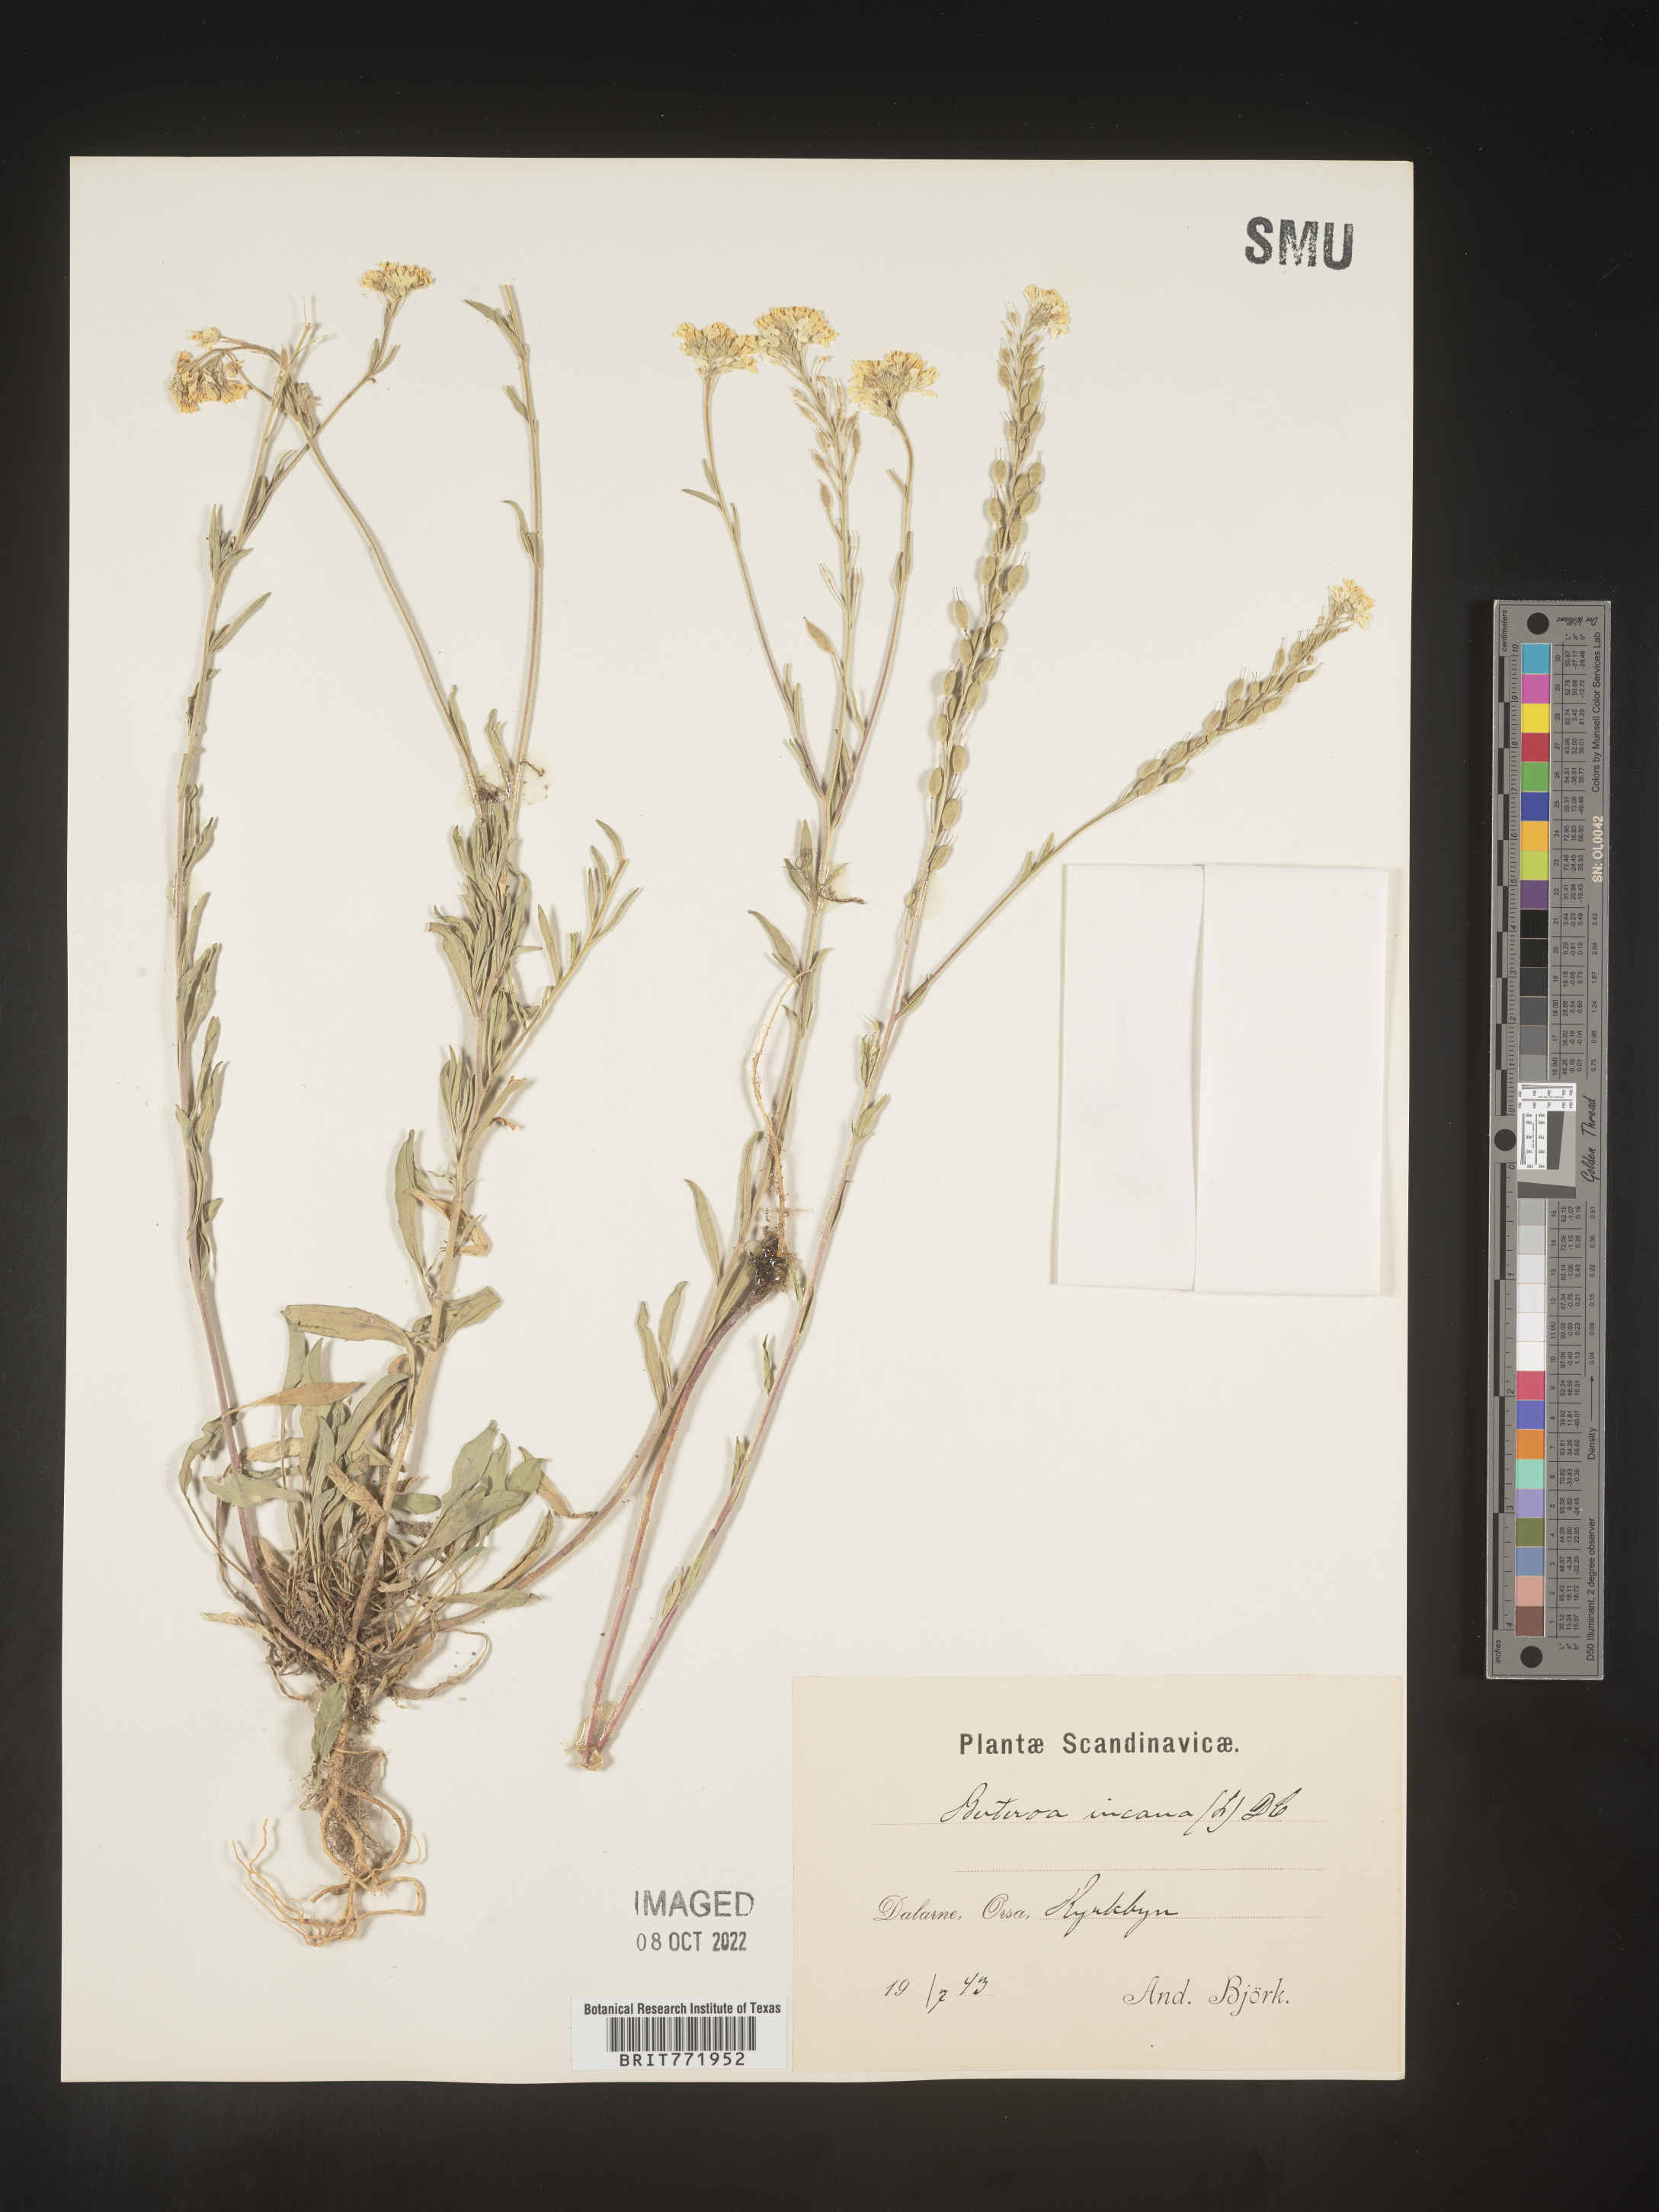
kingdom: Plantae
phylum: Tracheophyta
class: Magnoliopsida
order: Brassicales
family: Brassicaceae
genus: Berteroa
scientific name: Berteroa
